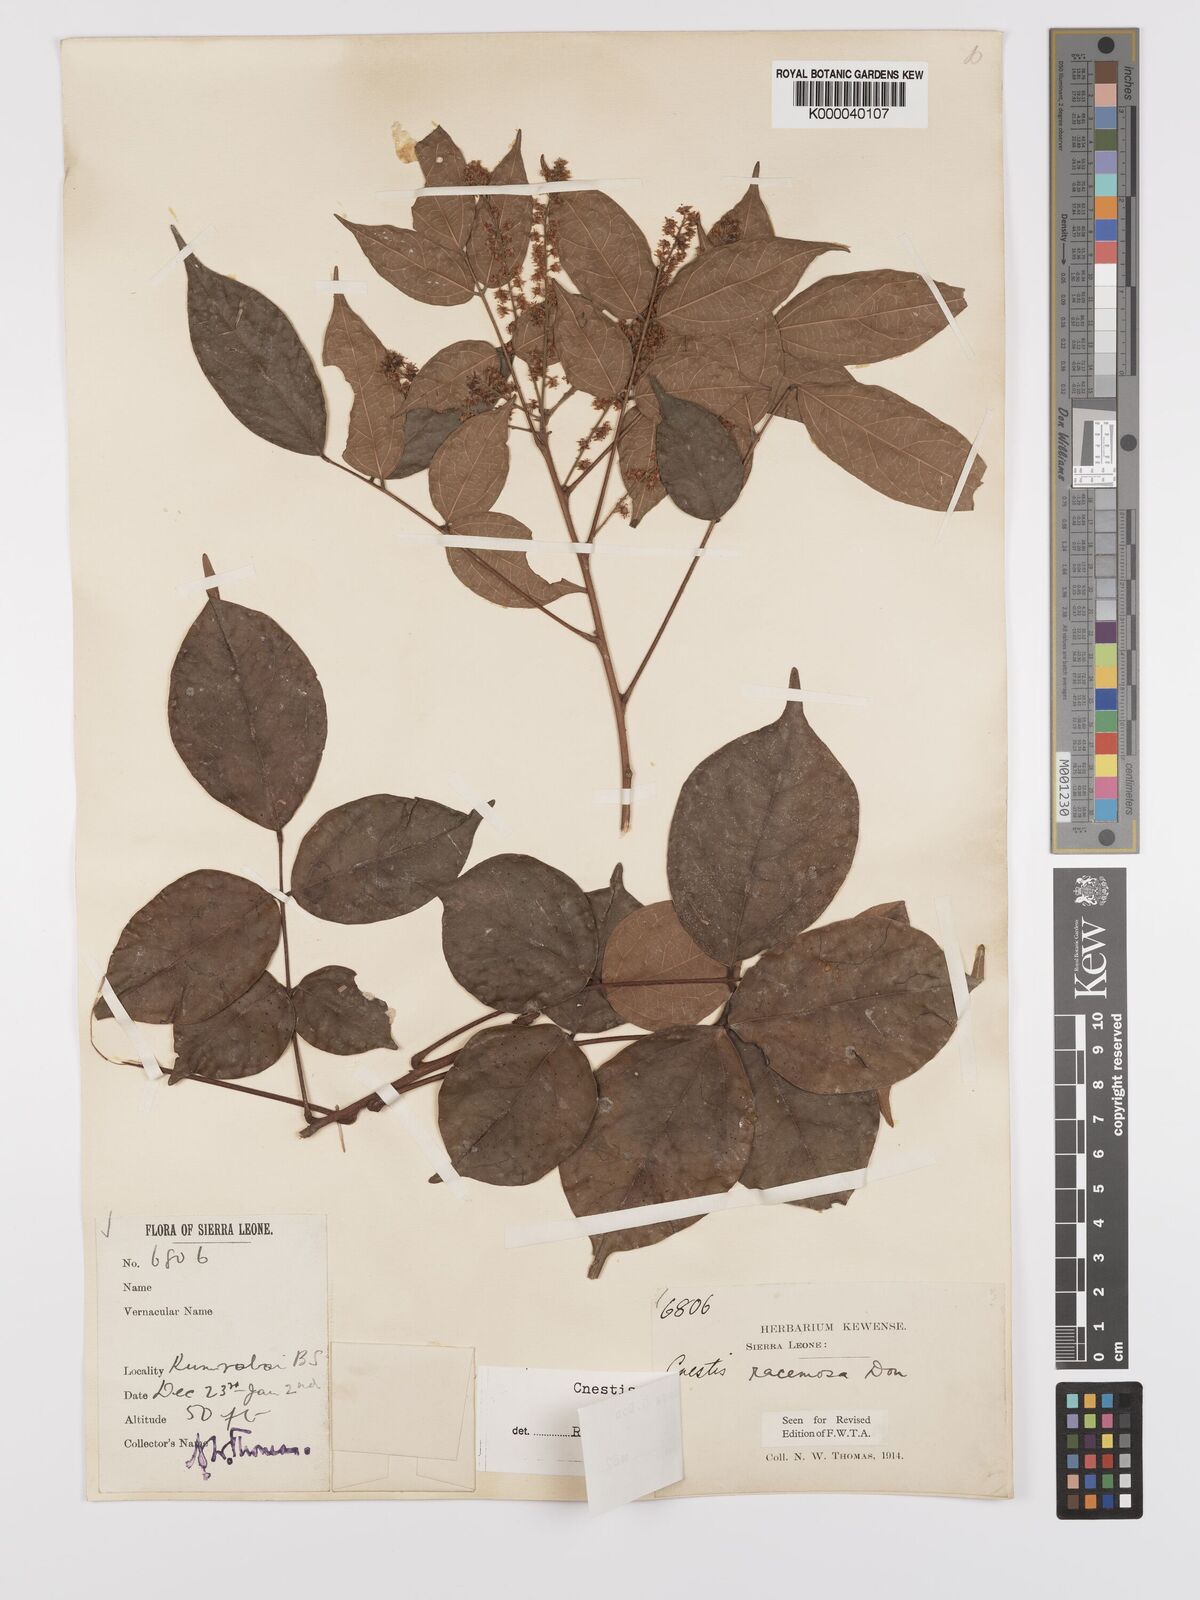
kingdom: Plantae
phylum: Tracheophyta
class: Magnoliopsida
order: Oxalidales
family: Connaraceae
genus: Cnestis
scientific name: Cnestis racemosa
